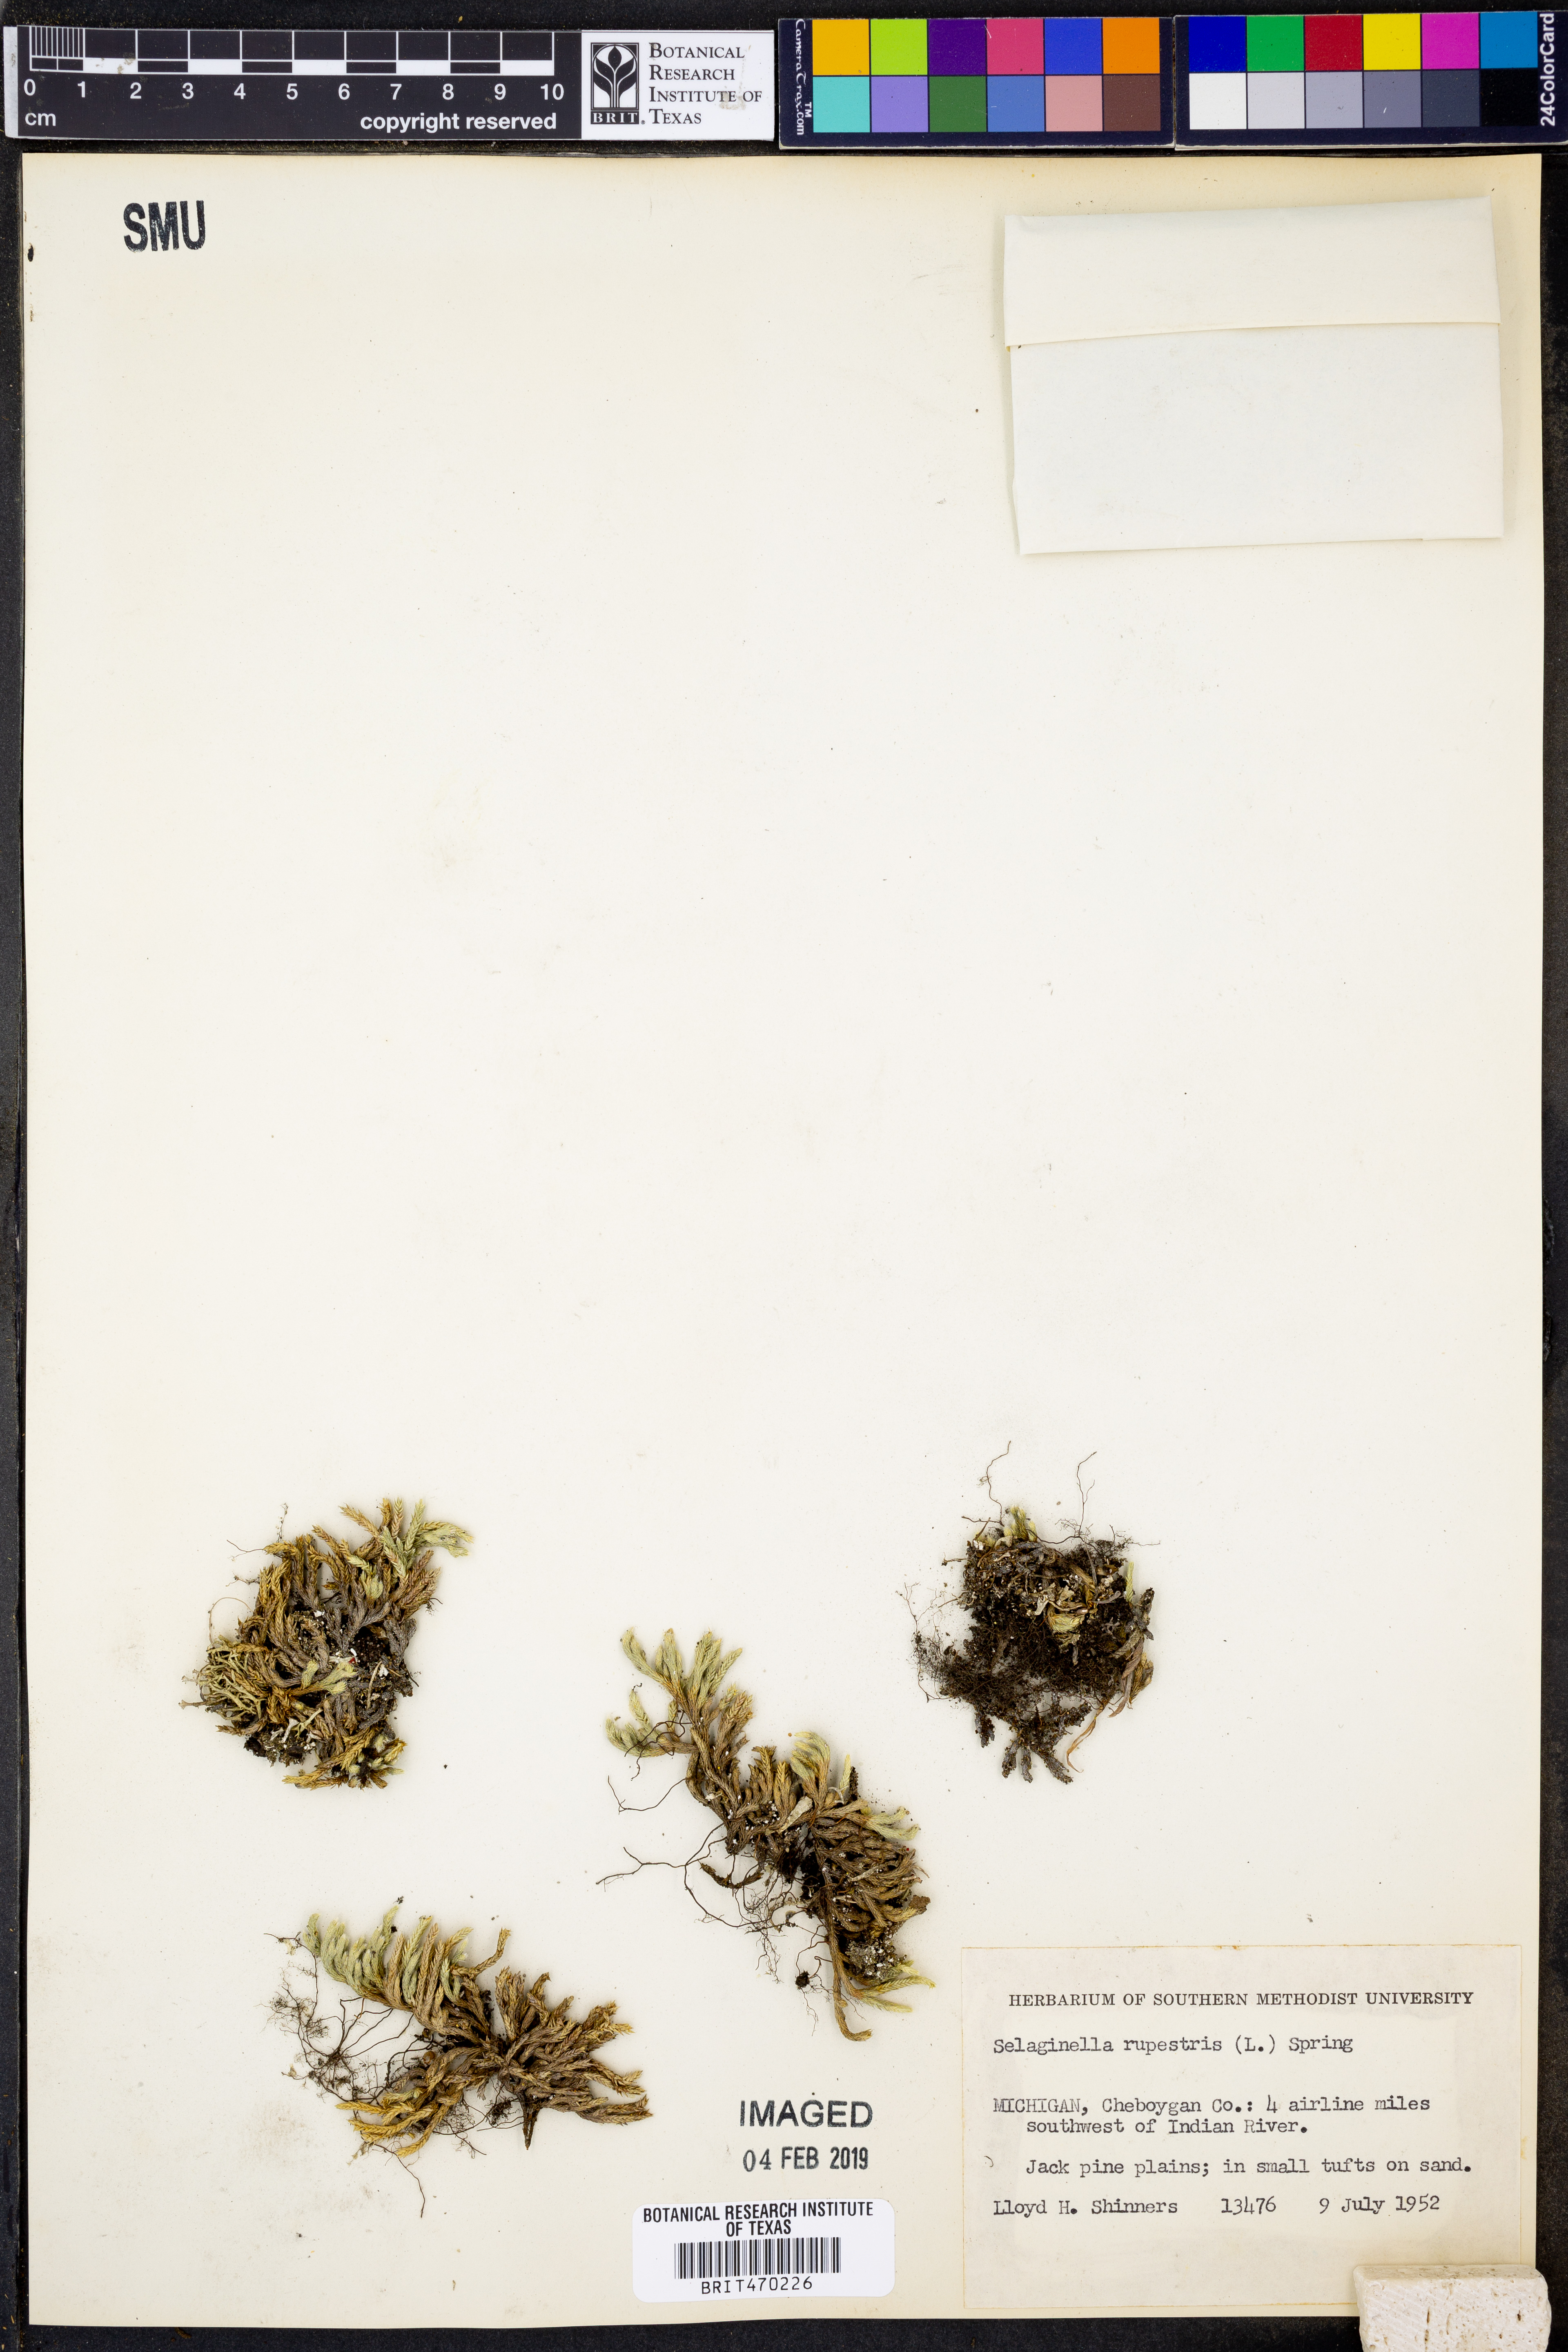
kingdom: Plantae
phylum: Tracheophyta
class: Lycopodiopsida
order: Selaginellales
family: Selaginellaceae
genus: Selaginella
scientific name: Selaginella rupestris
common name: Dwarf spikemoss
